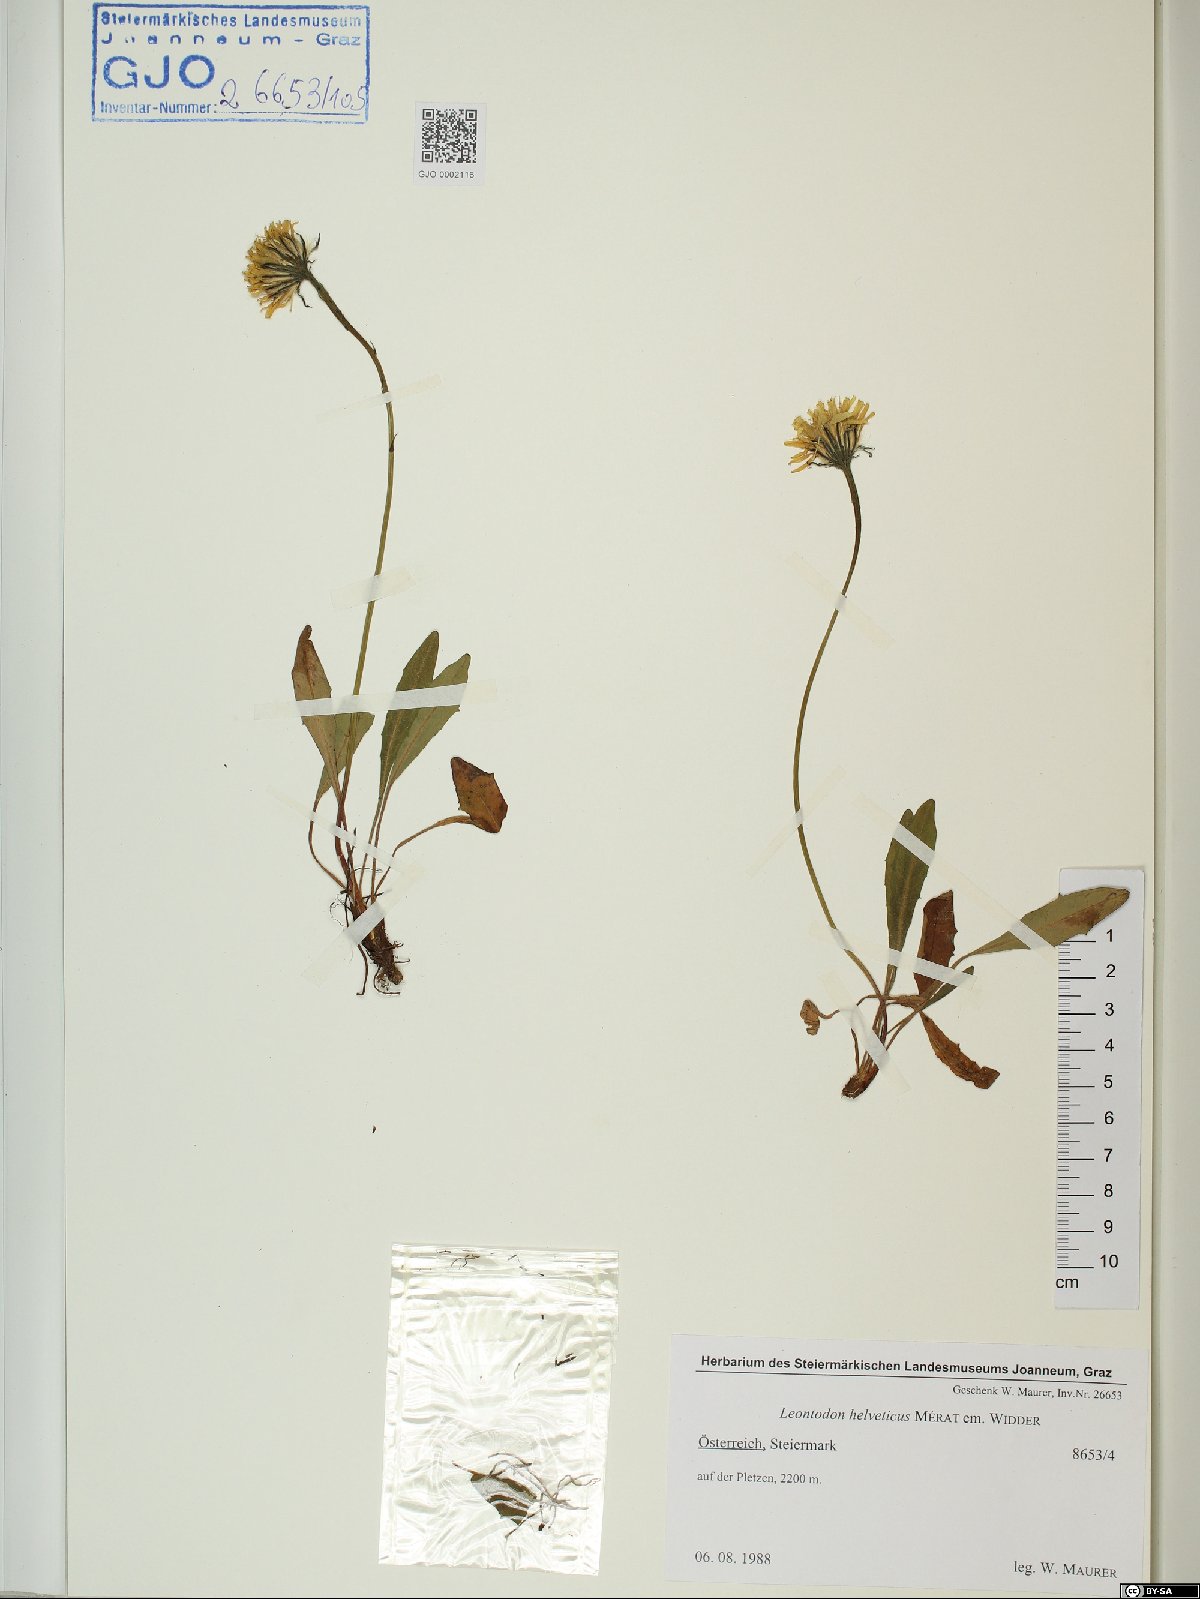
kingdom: Plantae
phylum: Tracheophyta
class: Magnoliopsida
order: Asterales
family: Asteraceae
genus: Scorzoneroides
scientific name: Scorzoneroides helvetica
